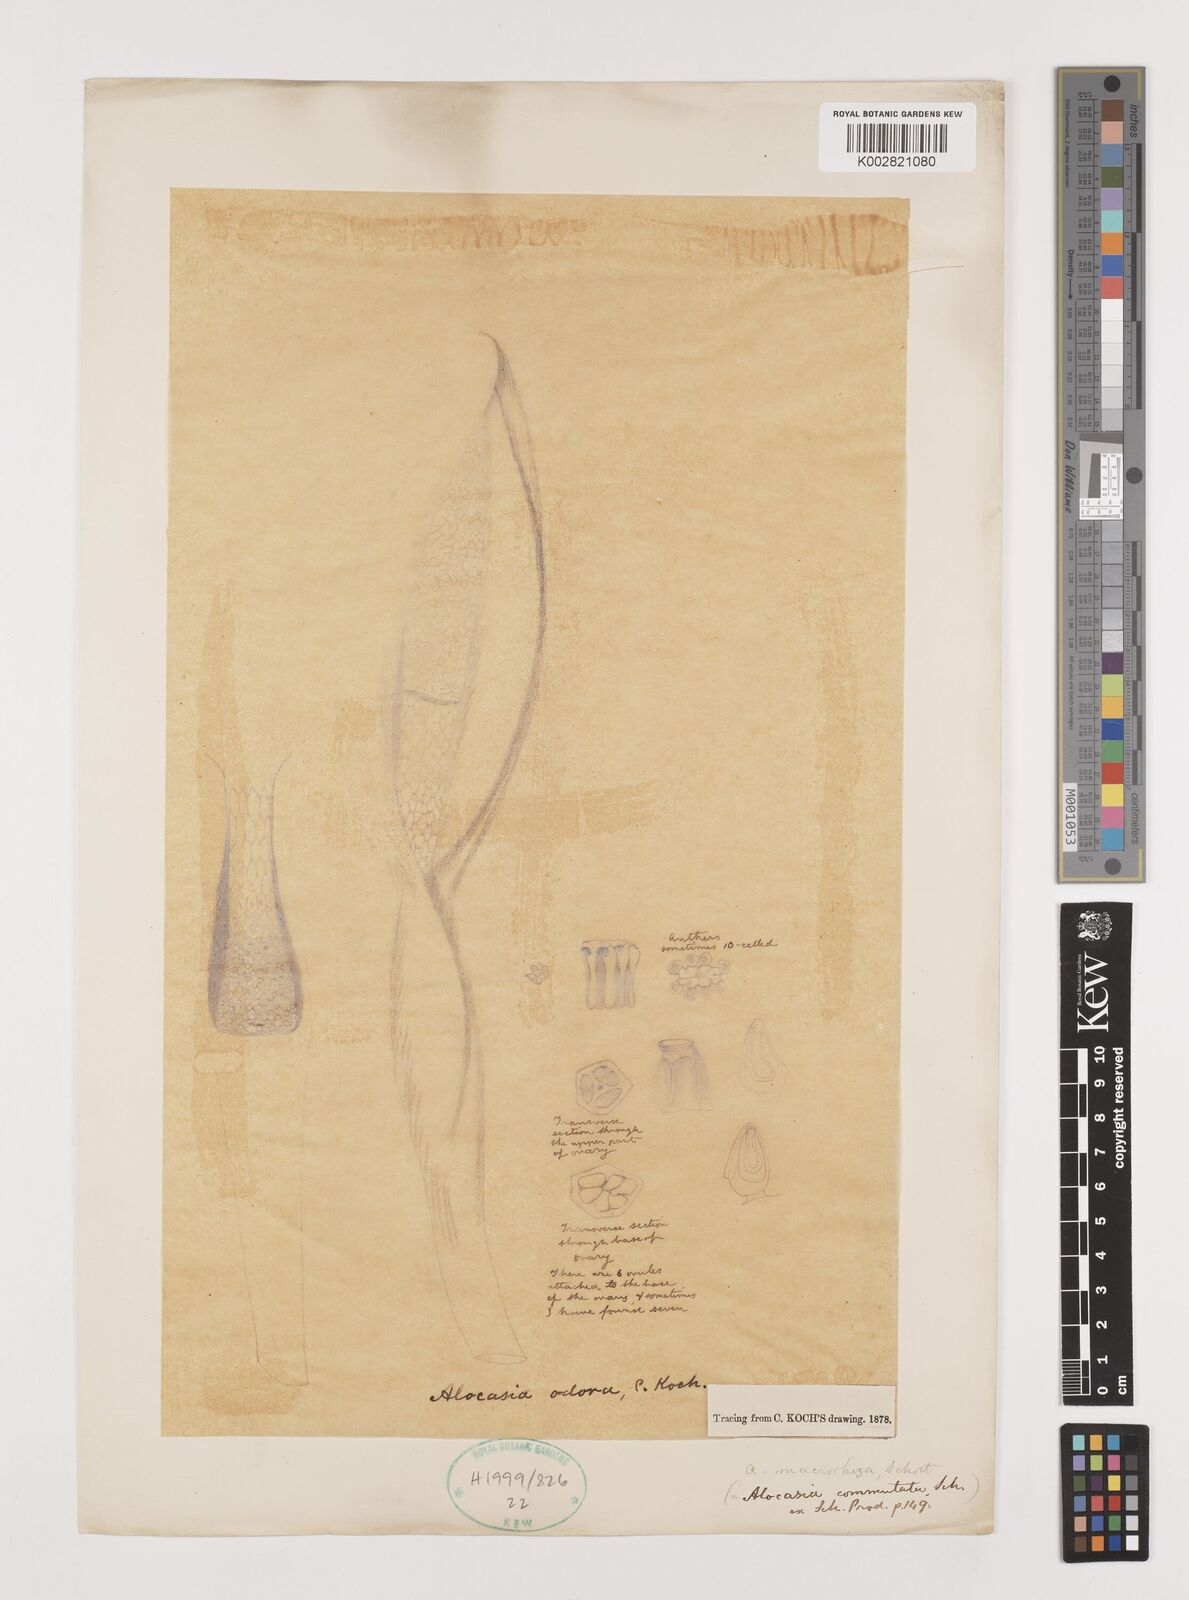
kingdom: Plantae
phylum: Tracheophyta
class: Liliopsida
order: Alismatales
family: Araceae
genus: Alocasia
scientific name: Alocasia
